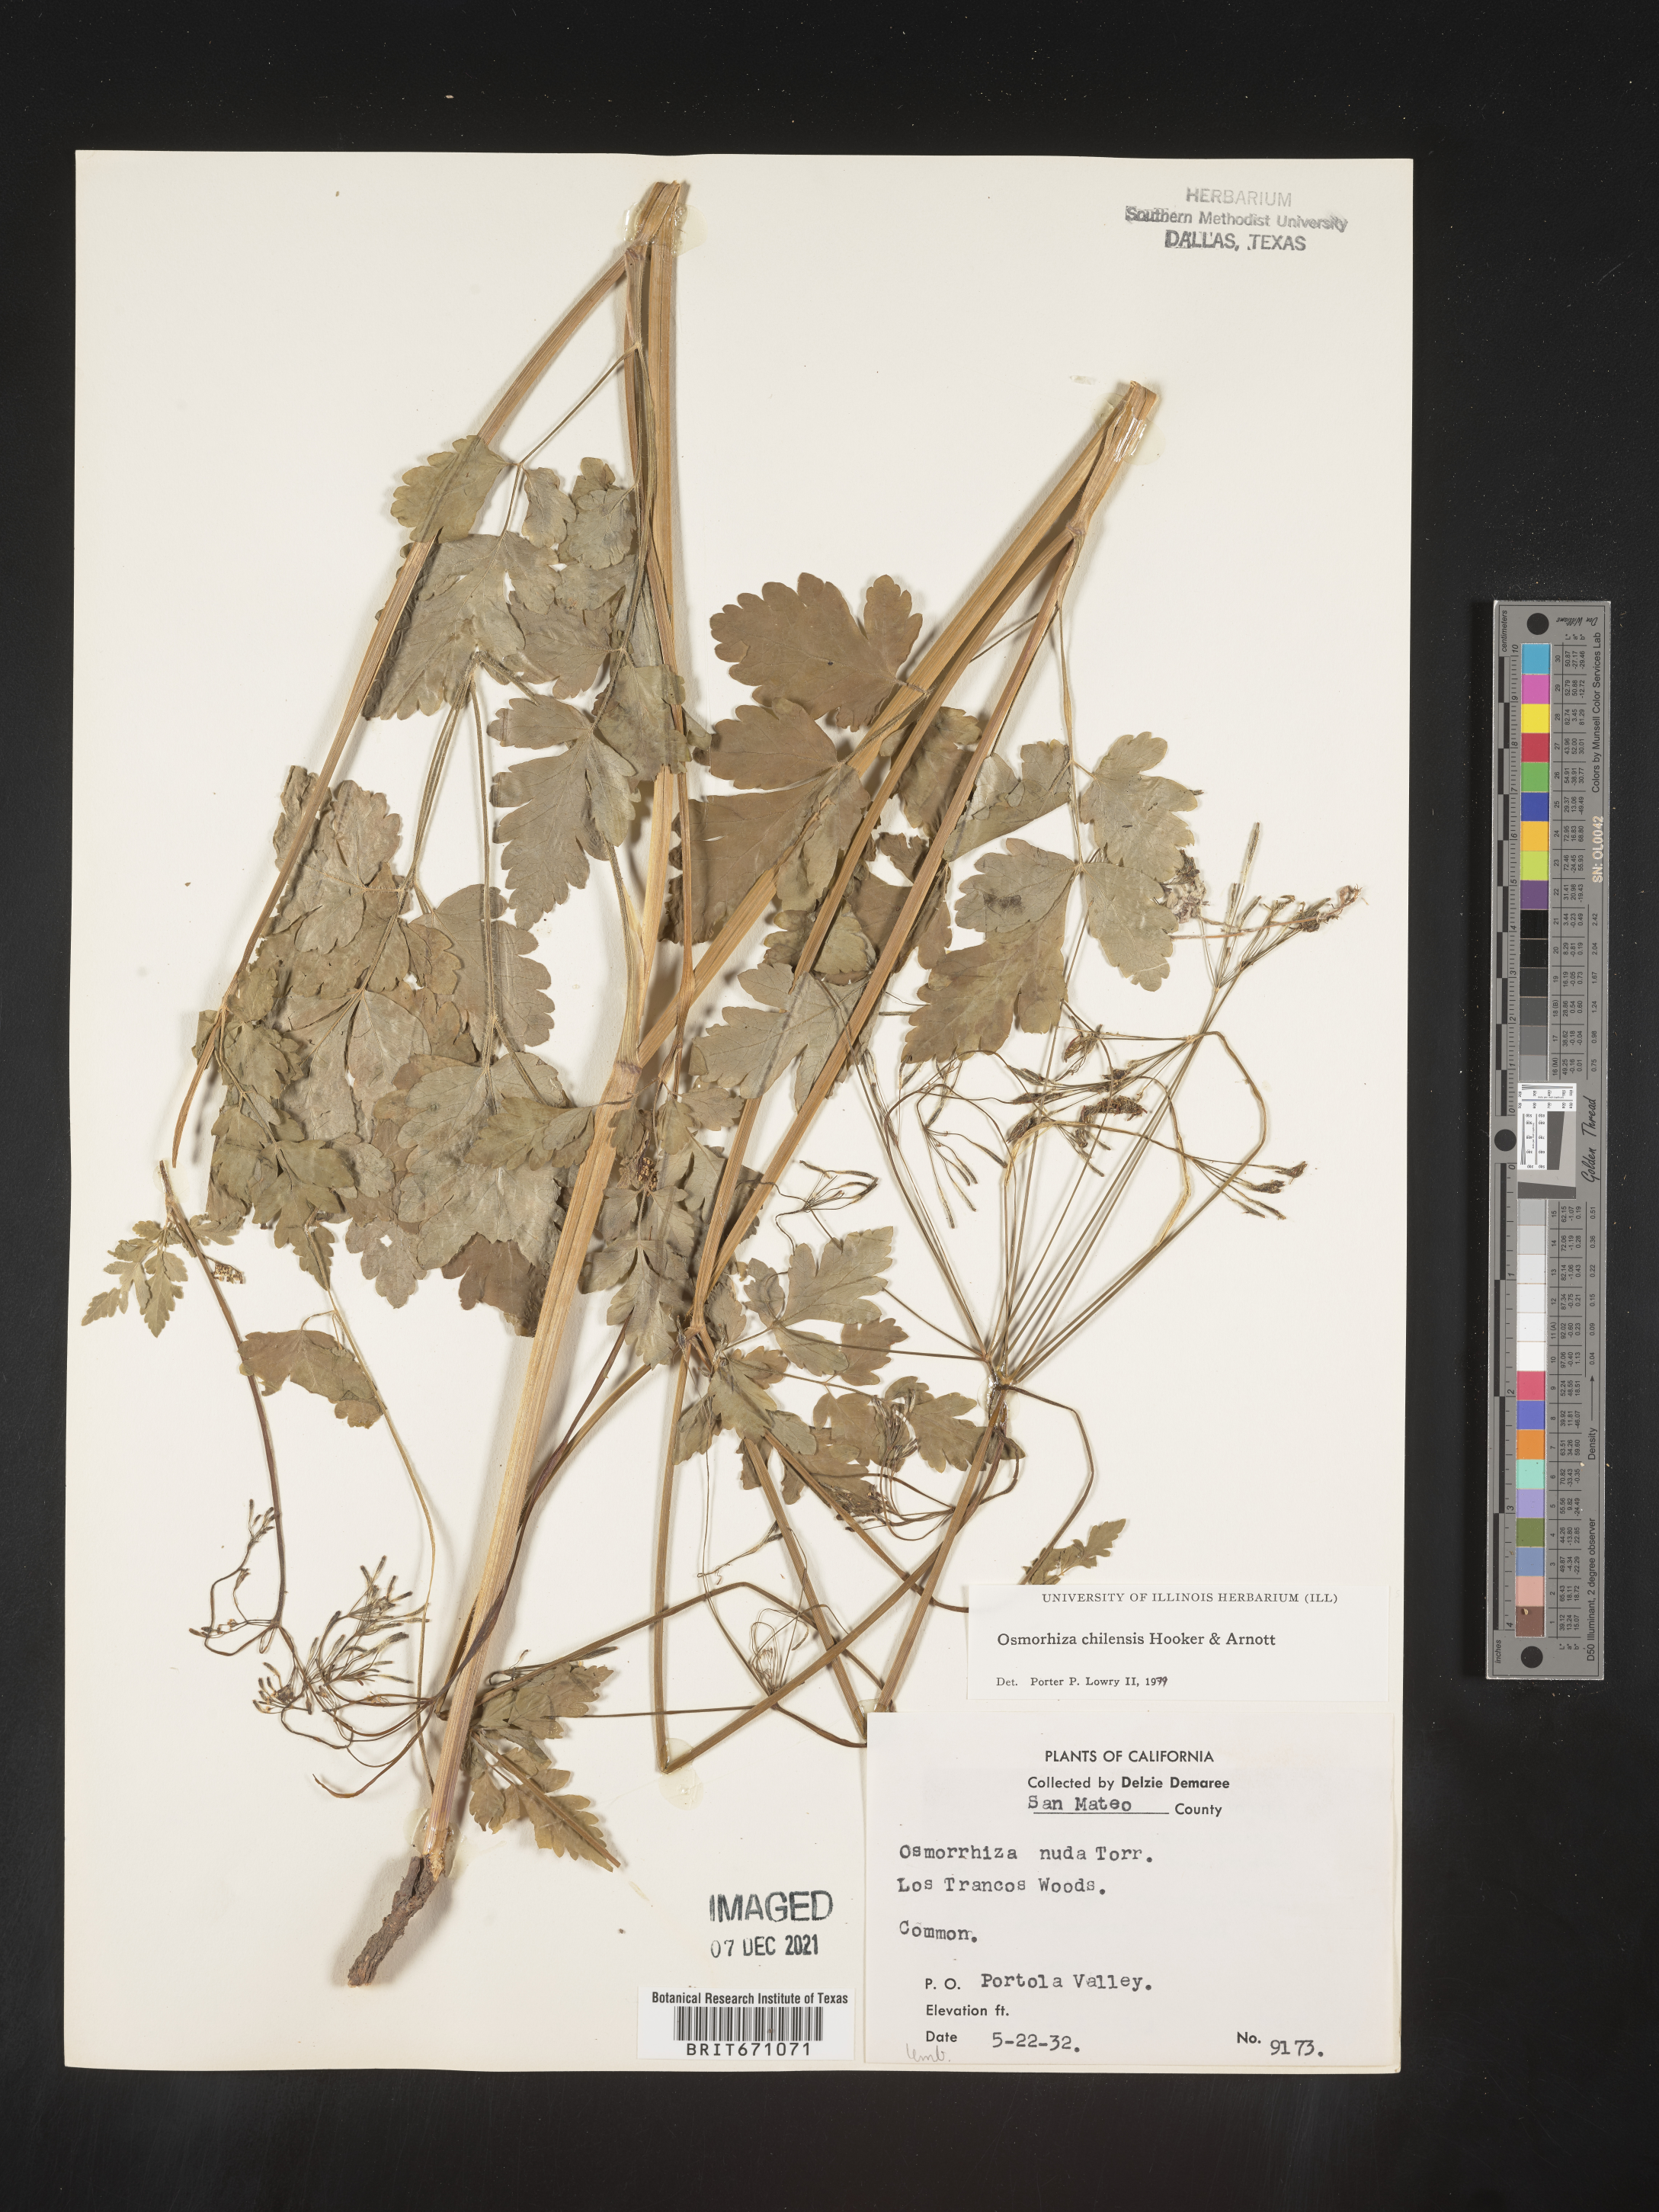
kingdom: Plantae
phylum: Tracheophyta
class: Magnoliopsida
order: Apiales
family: Apiaceae
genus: Osmorhiza
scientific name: Osmorhiza berteroi
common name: Mountain sweet cicely
